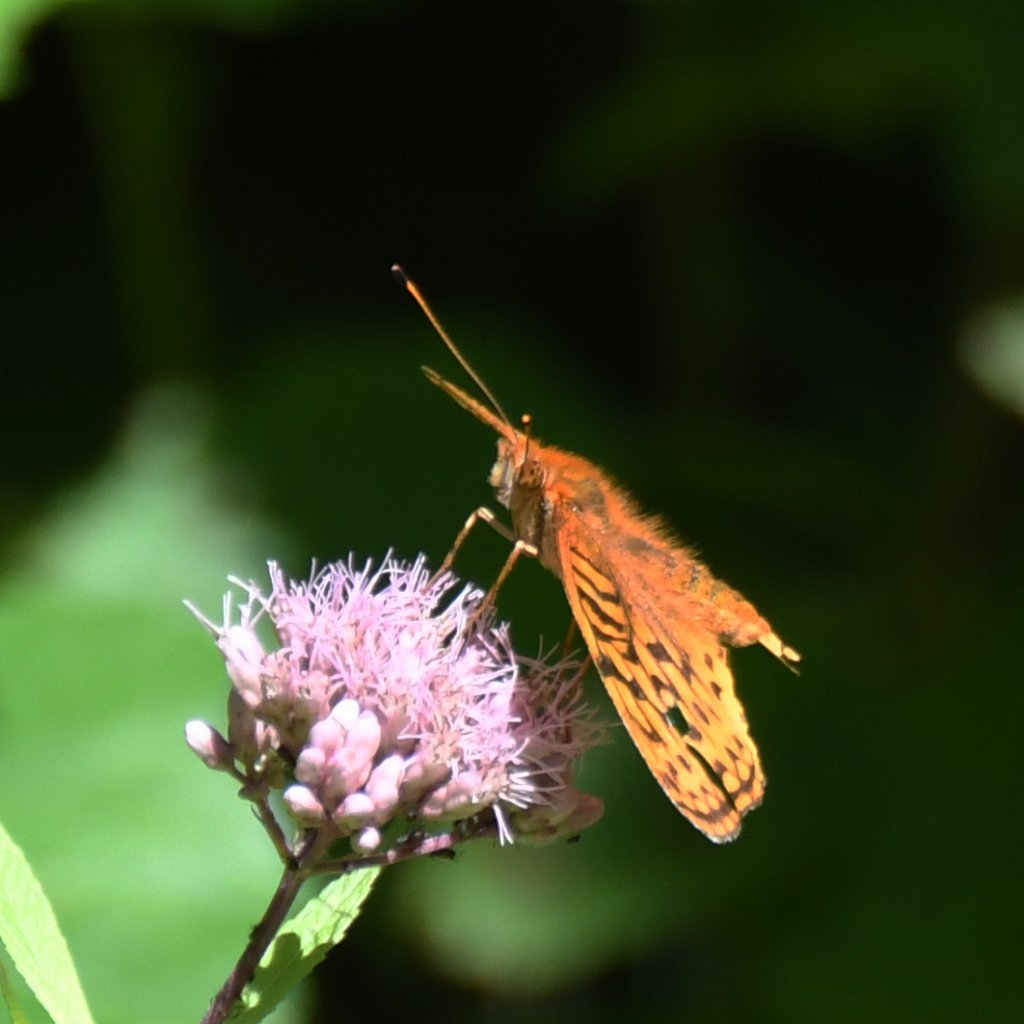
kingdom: Animalia
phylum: Arthropoda
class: Insecta
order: Lepidoptera
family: Nymphalidae
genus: Speyeria
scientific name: Speyeria cybele
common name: Great Spangled Fritillary
